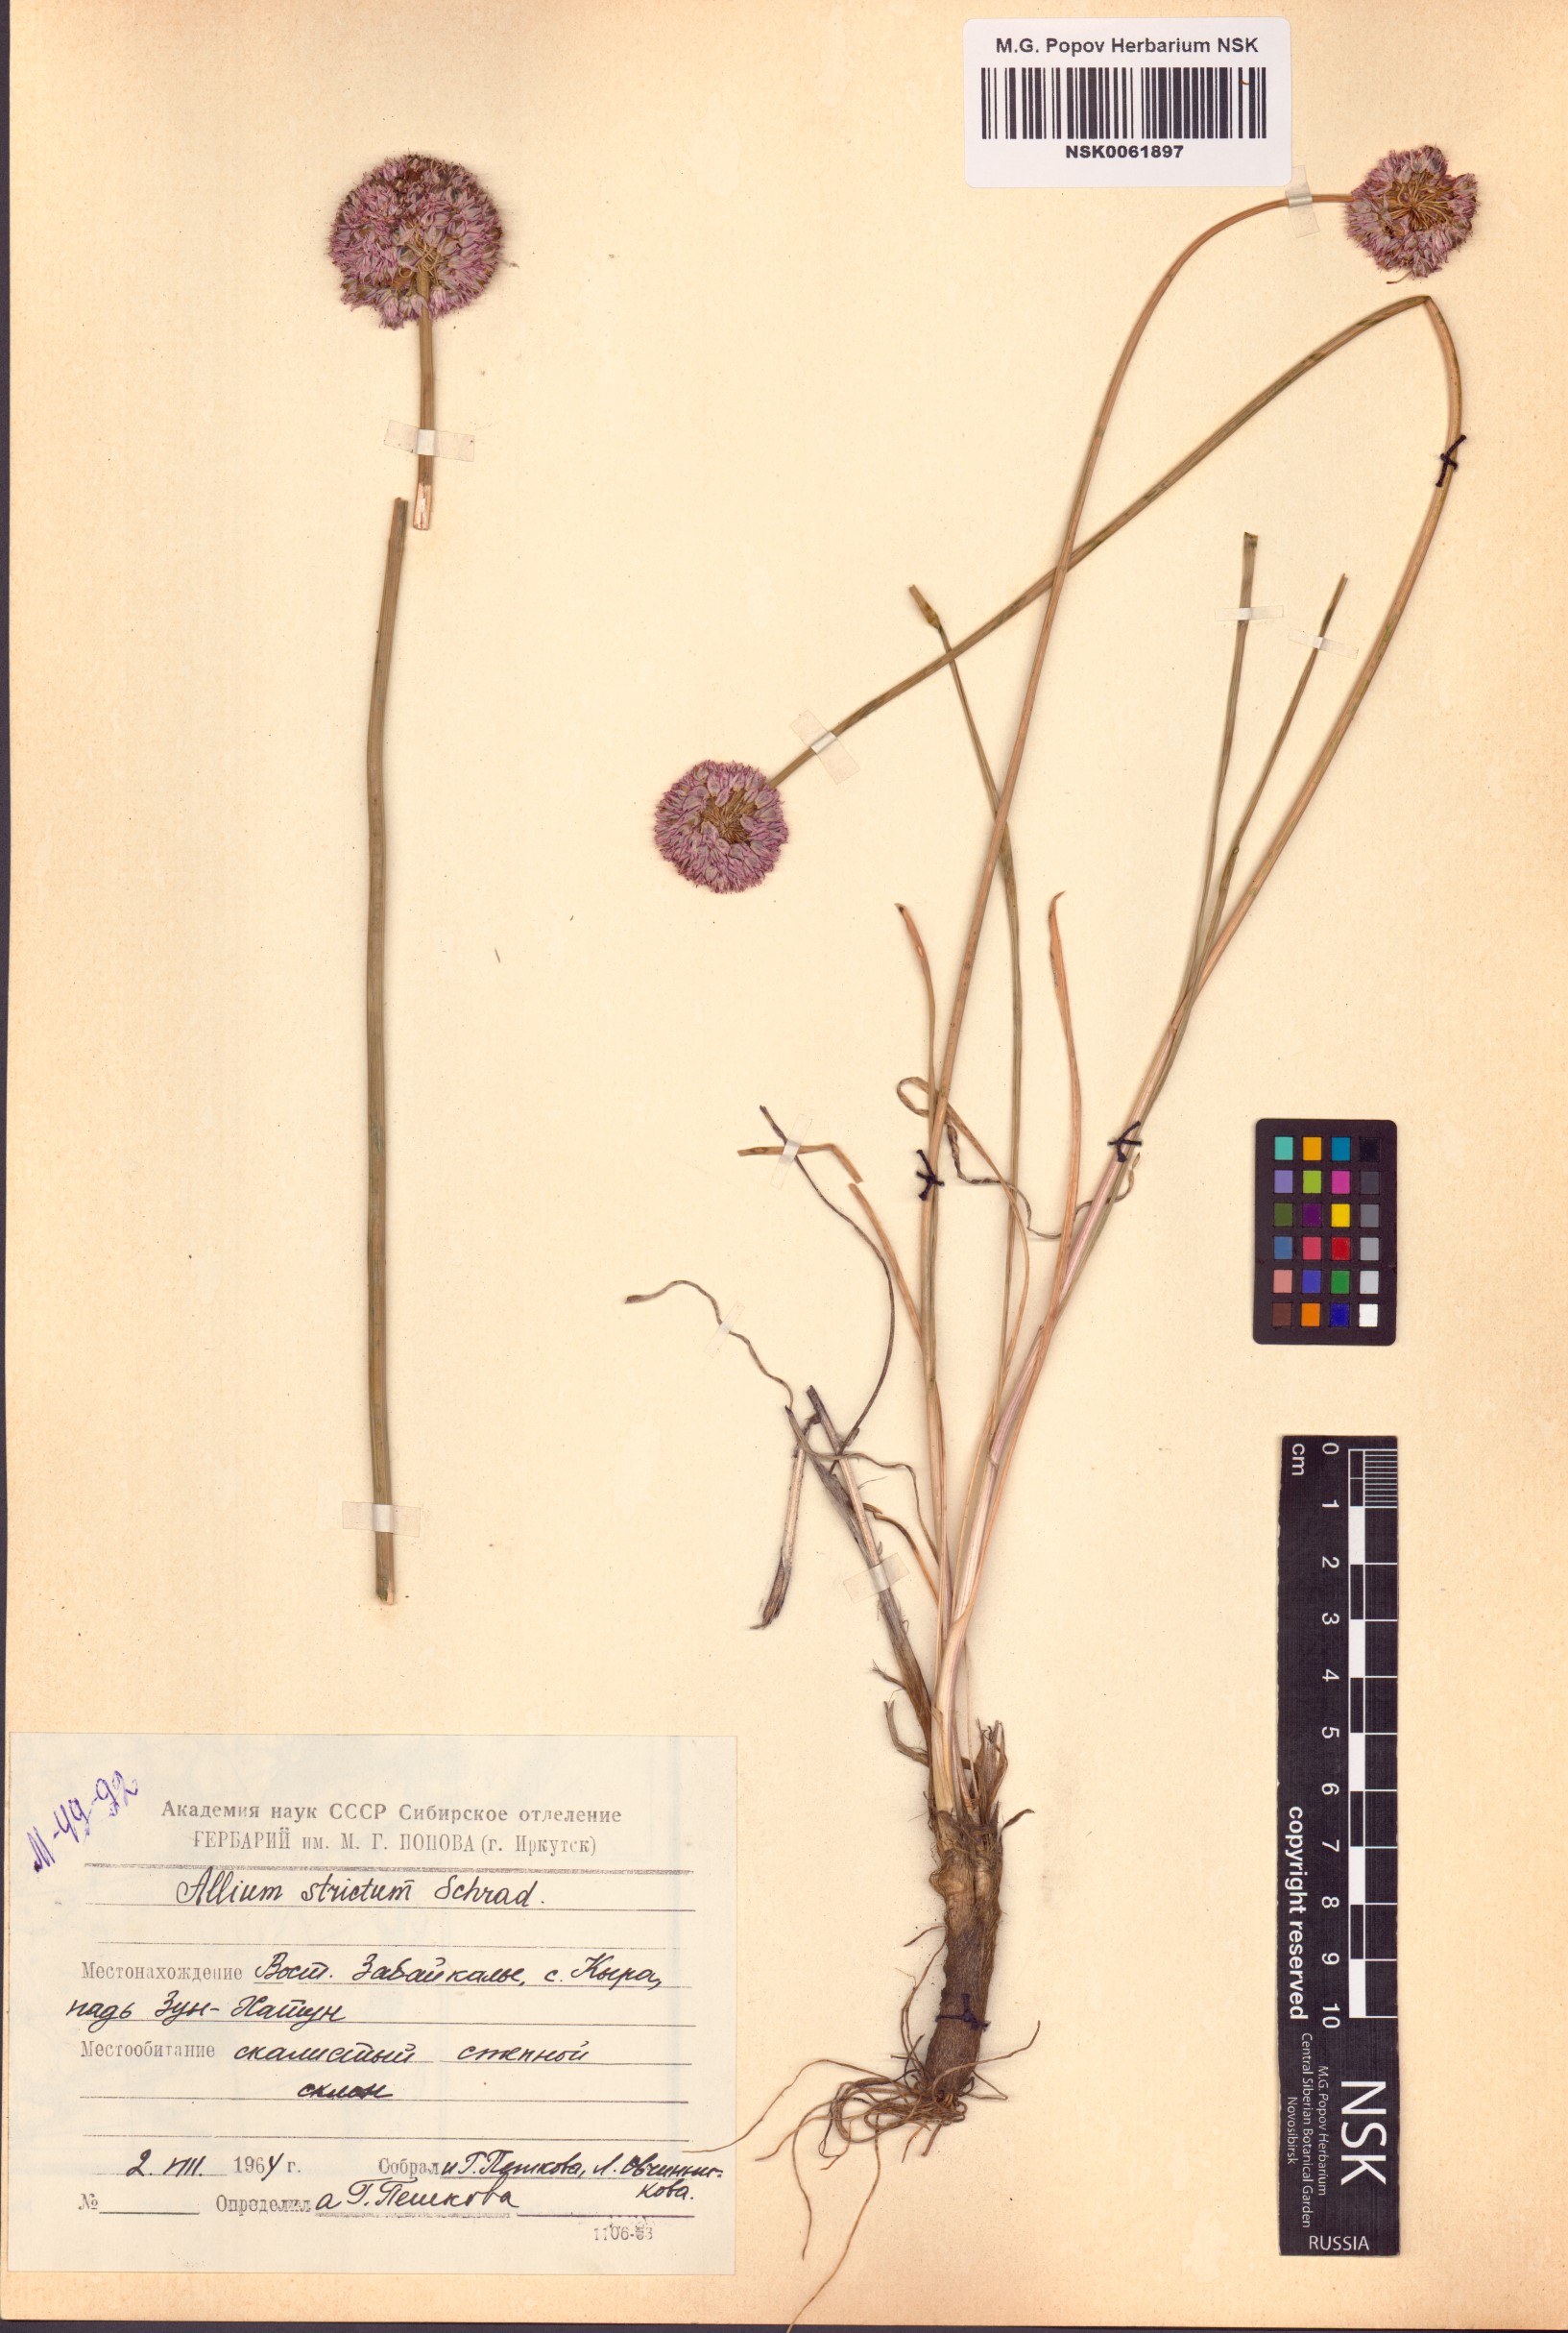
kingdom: Plantae
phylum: Tracheophyta
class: Liliopsida
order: Asparagales
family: Amaryllidaceae
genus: Allium
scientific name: Allium strictum
